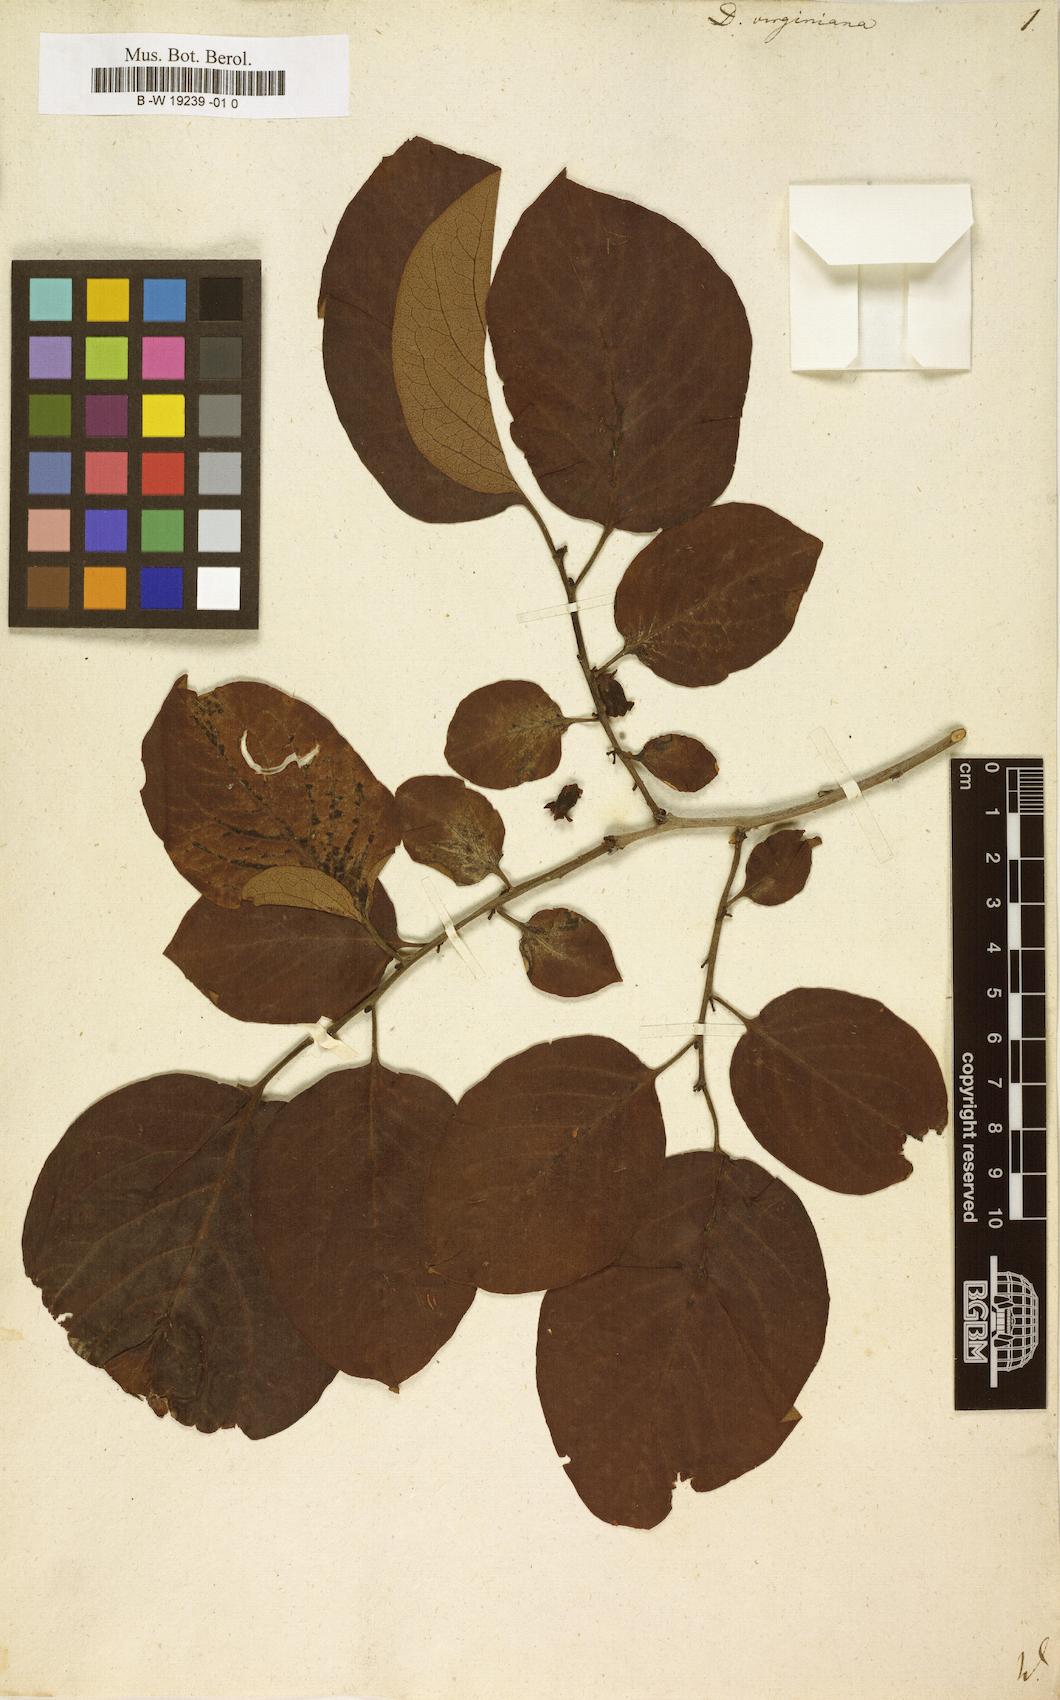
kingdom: Plantae
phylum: Tracheophyta
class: Magnoliopsida
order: Ericales
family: Ebenaceae
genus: Diospyros
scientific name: Diospyros virginiana
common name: Persimmon
